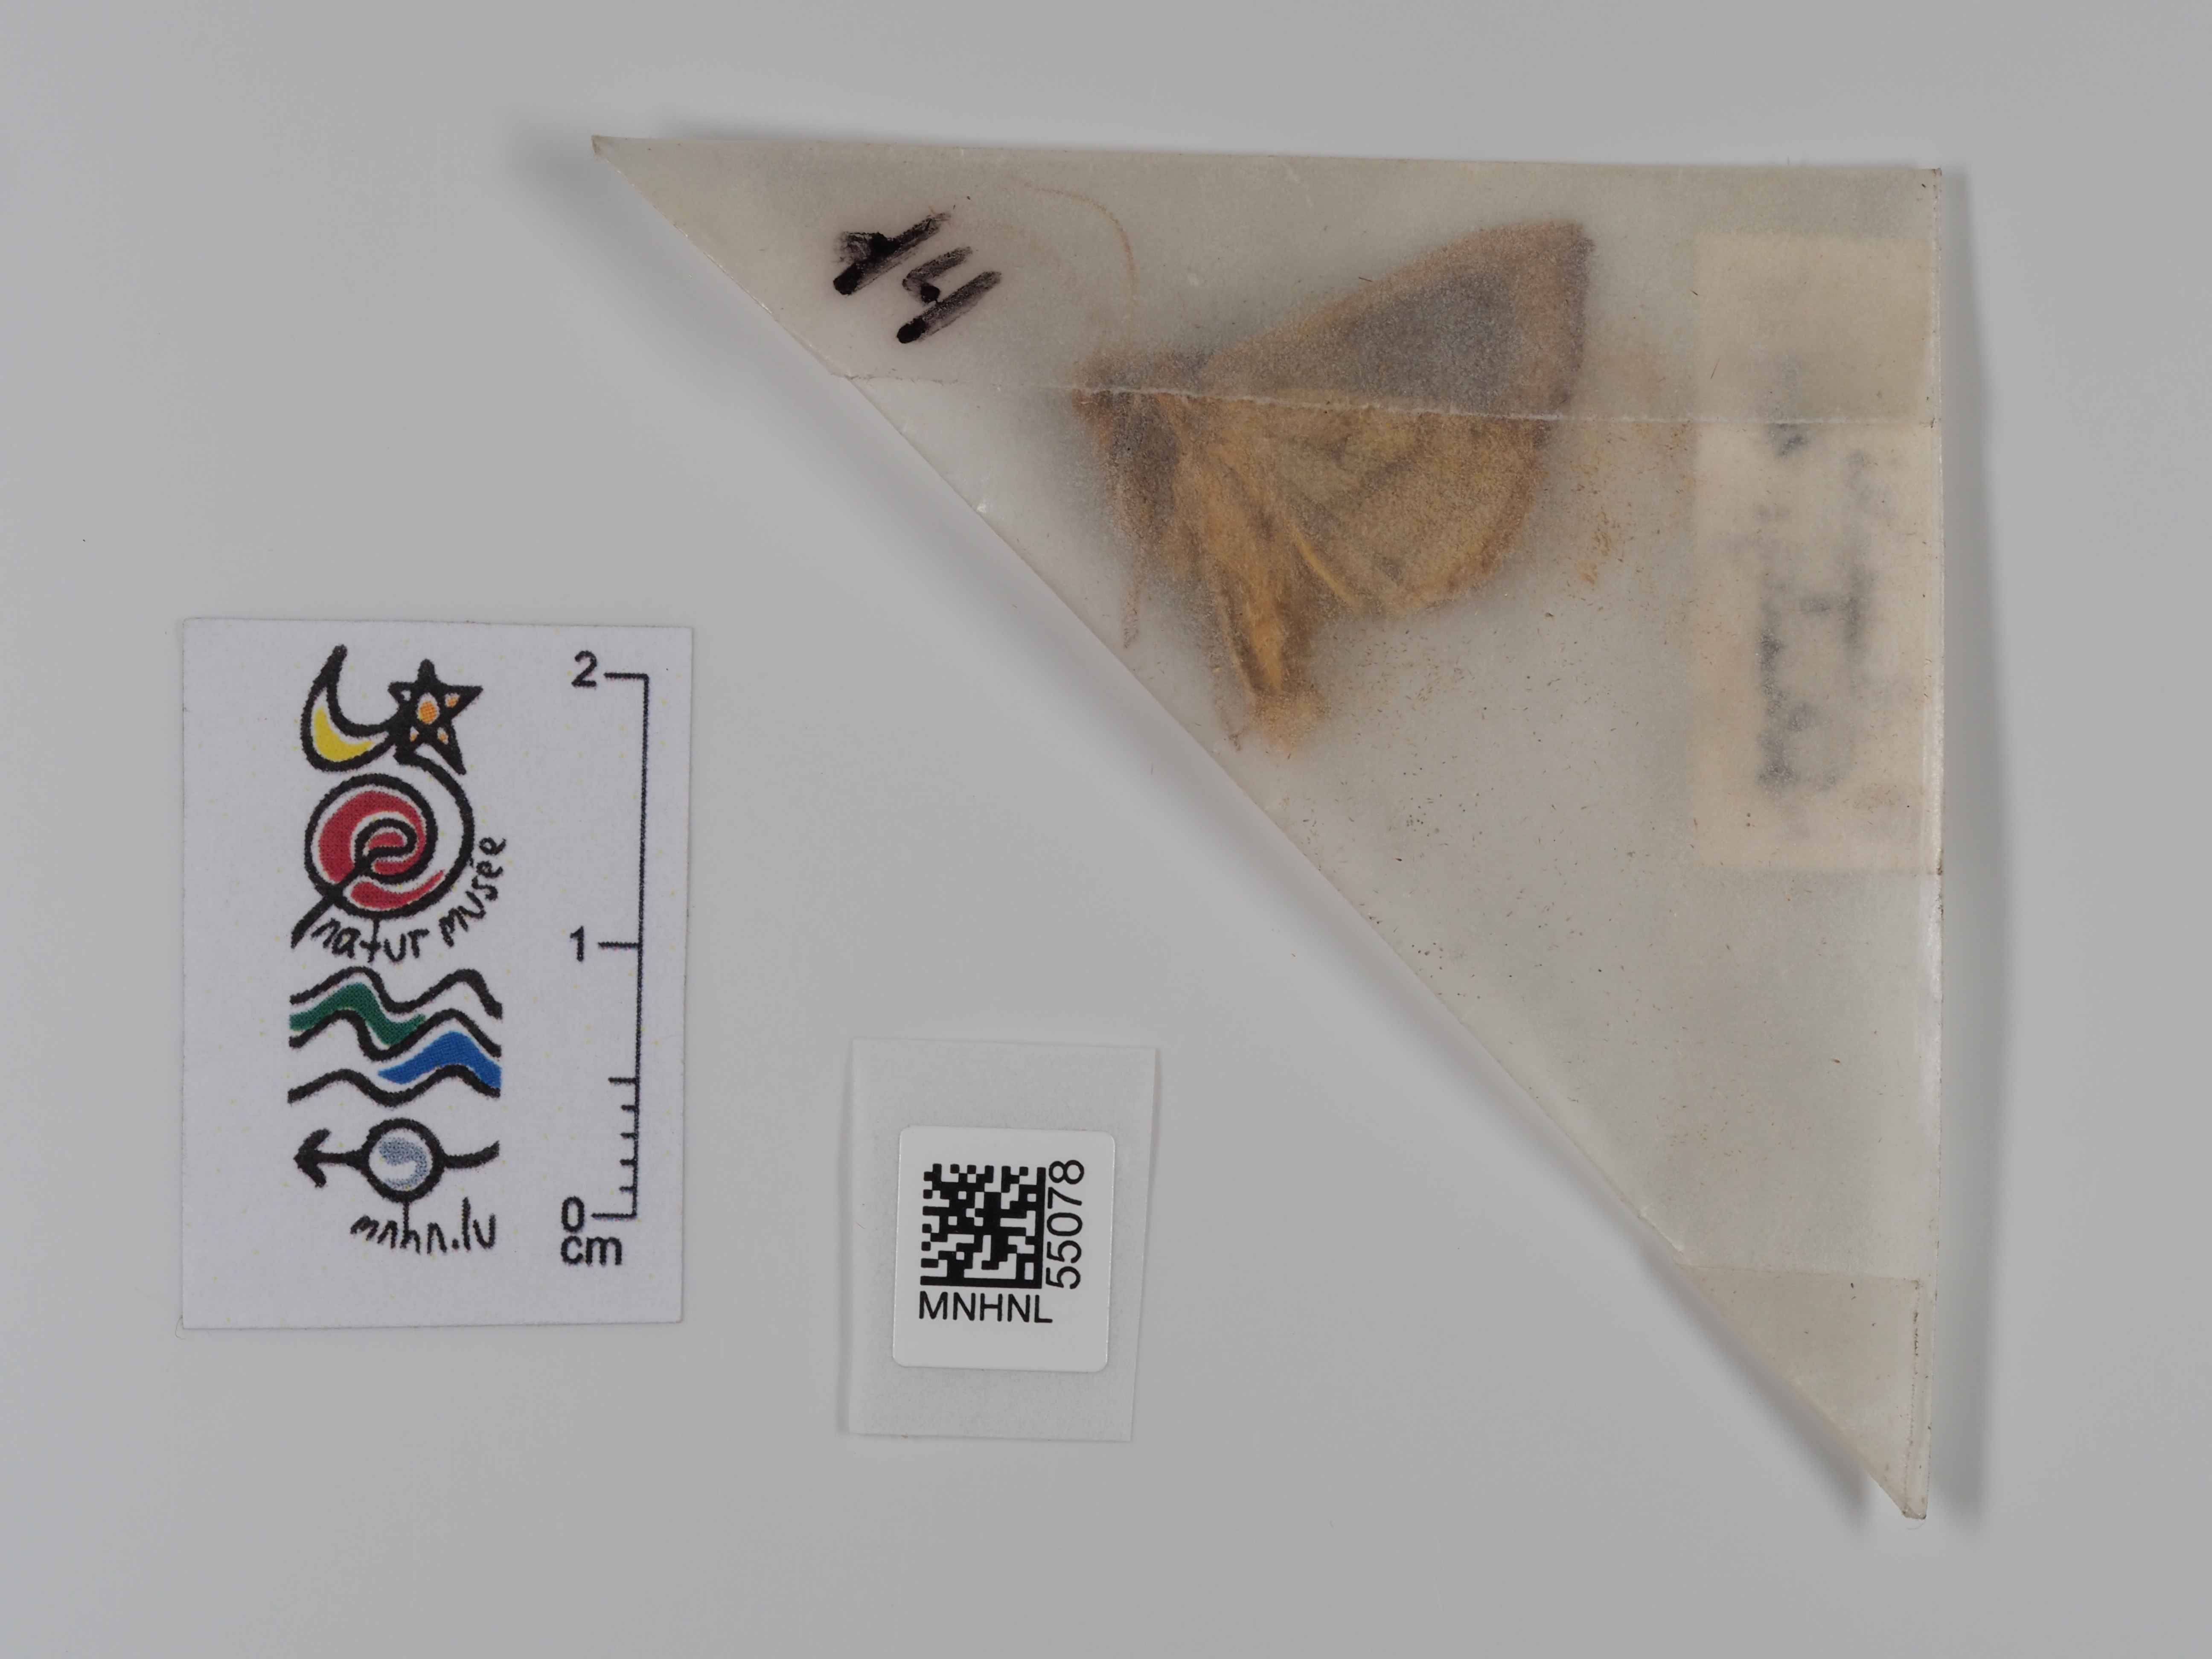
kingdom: Animalia
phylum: Arthropoda
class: Insecta
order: Lepidoptera
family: Noctuidae
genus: Diachrysia
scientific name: Diachrysia chrysitis
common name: Burnished brass
